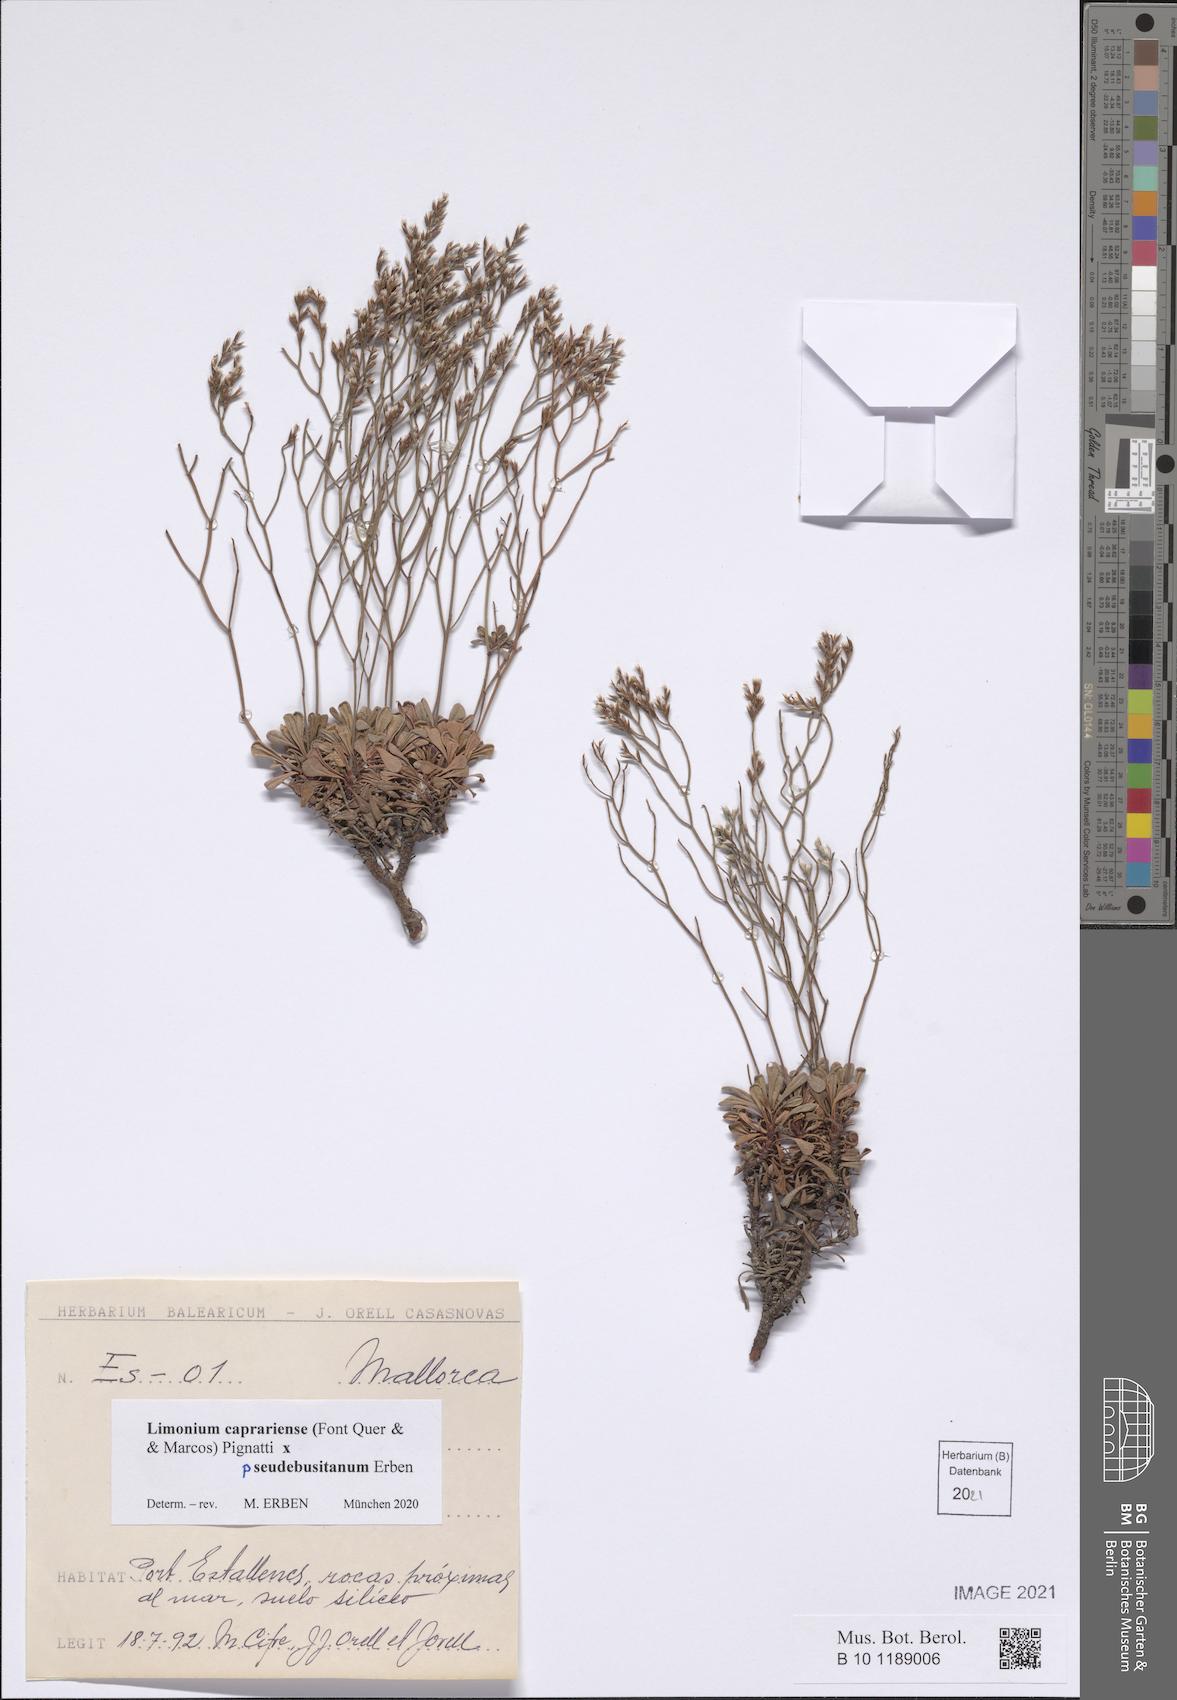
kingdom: Plantae
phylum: Tracheophyta
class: Magnoliopsida
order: Caryophyllales
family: Plumbaginaceae
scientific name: Plumbaginaceae
